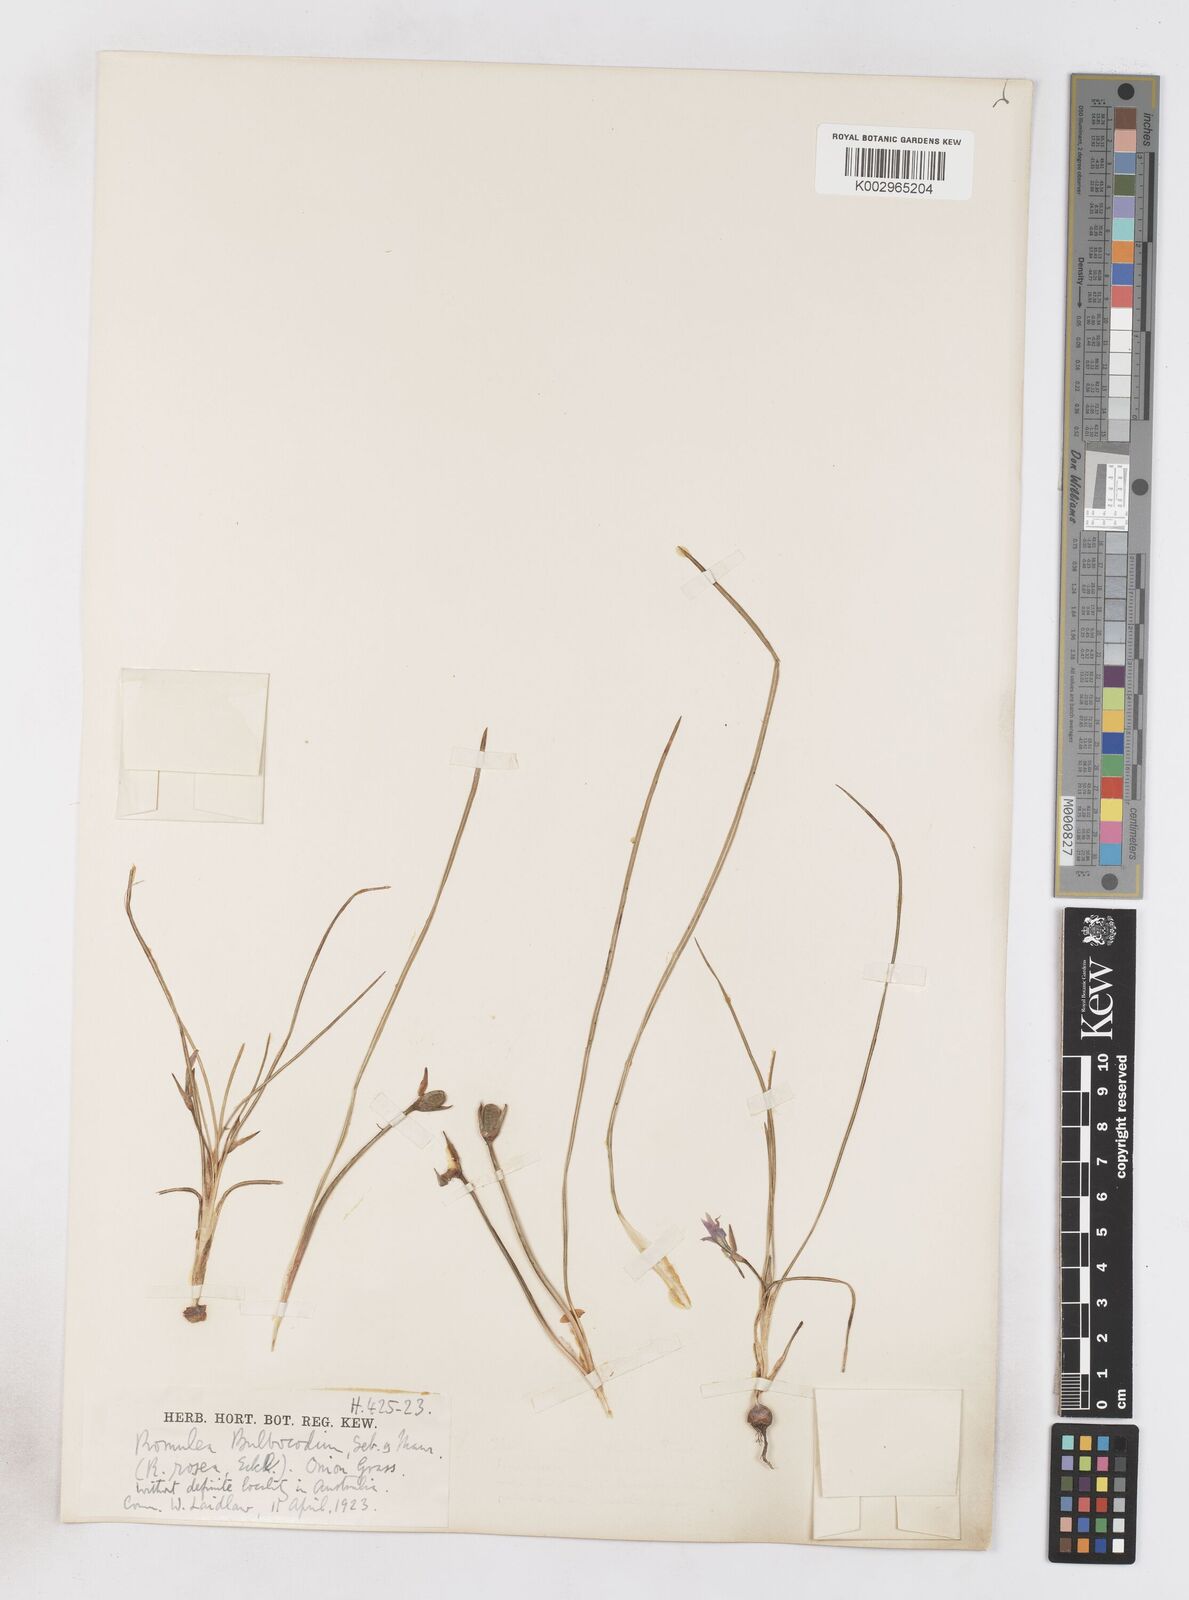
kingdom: Plantae
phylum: Tracheophyta
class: Liliopsida
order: Asparagales
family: Iridaceae
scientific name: Iridaceae
